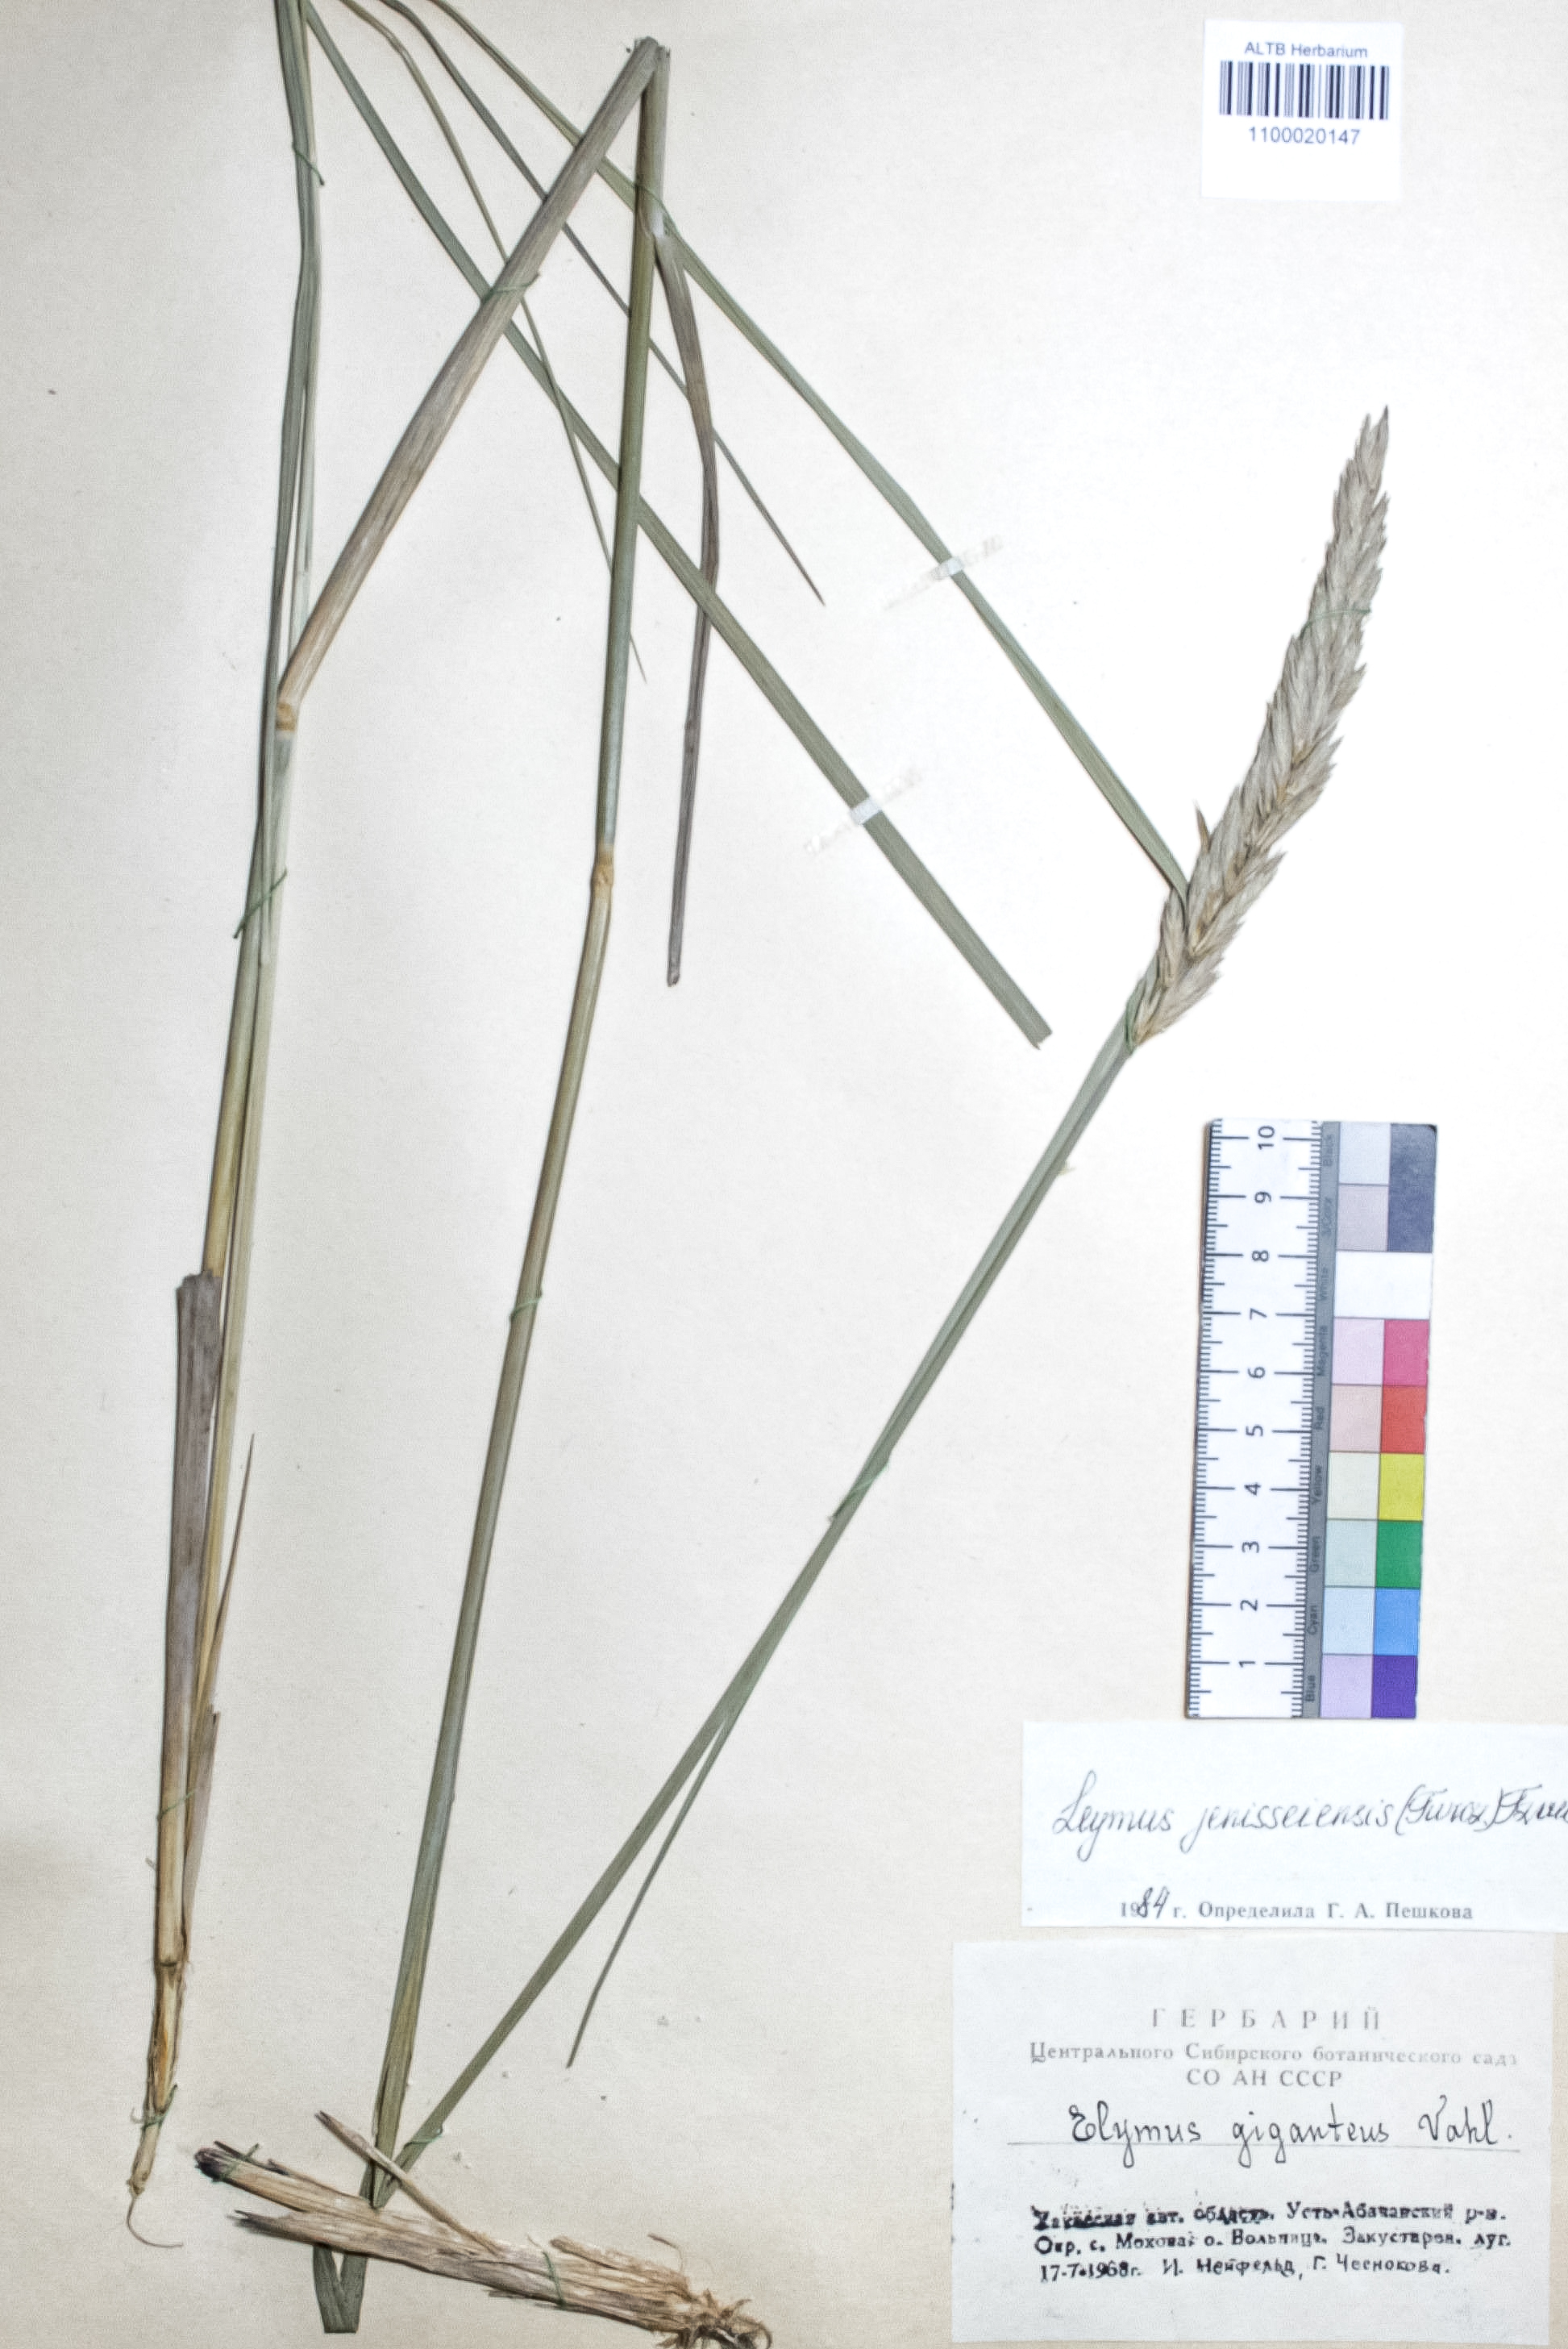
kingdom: Plantae
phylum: Tracheophyta
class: Liliopsida
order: Poales
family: Poaceae
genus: Leymus
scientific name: Leymus jenisseiensis
